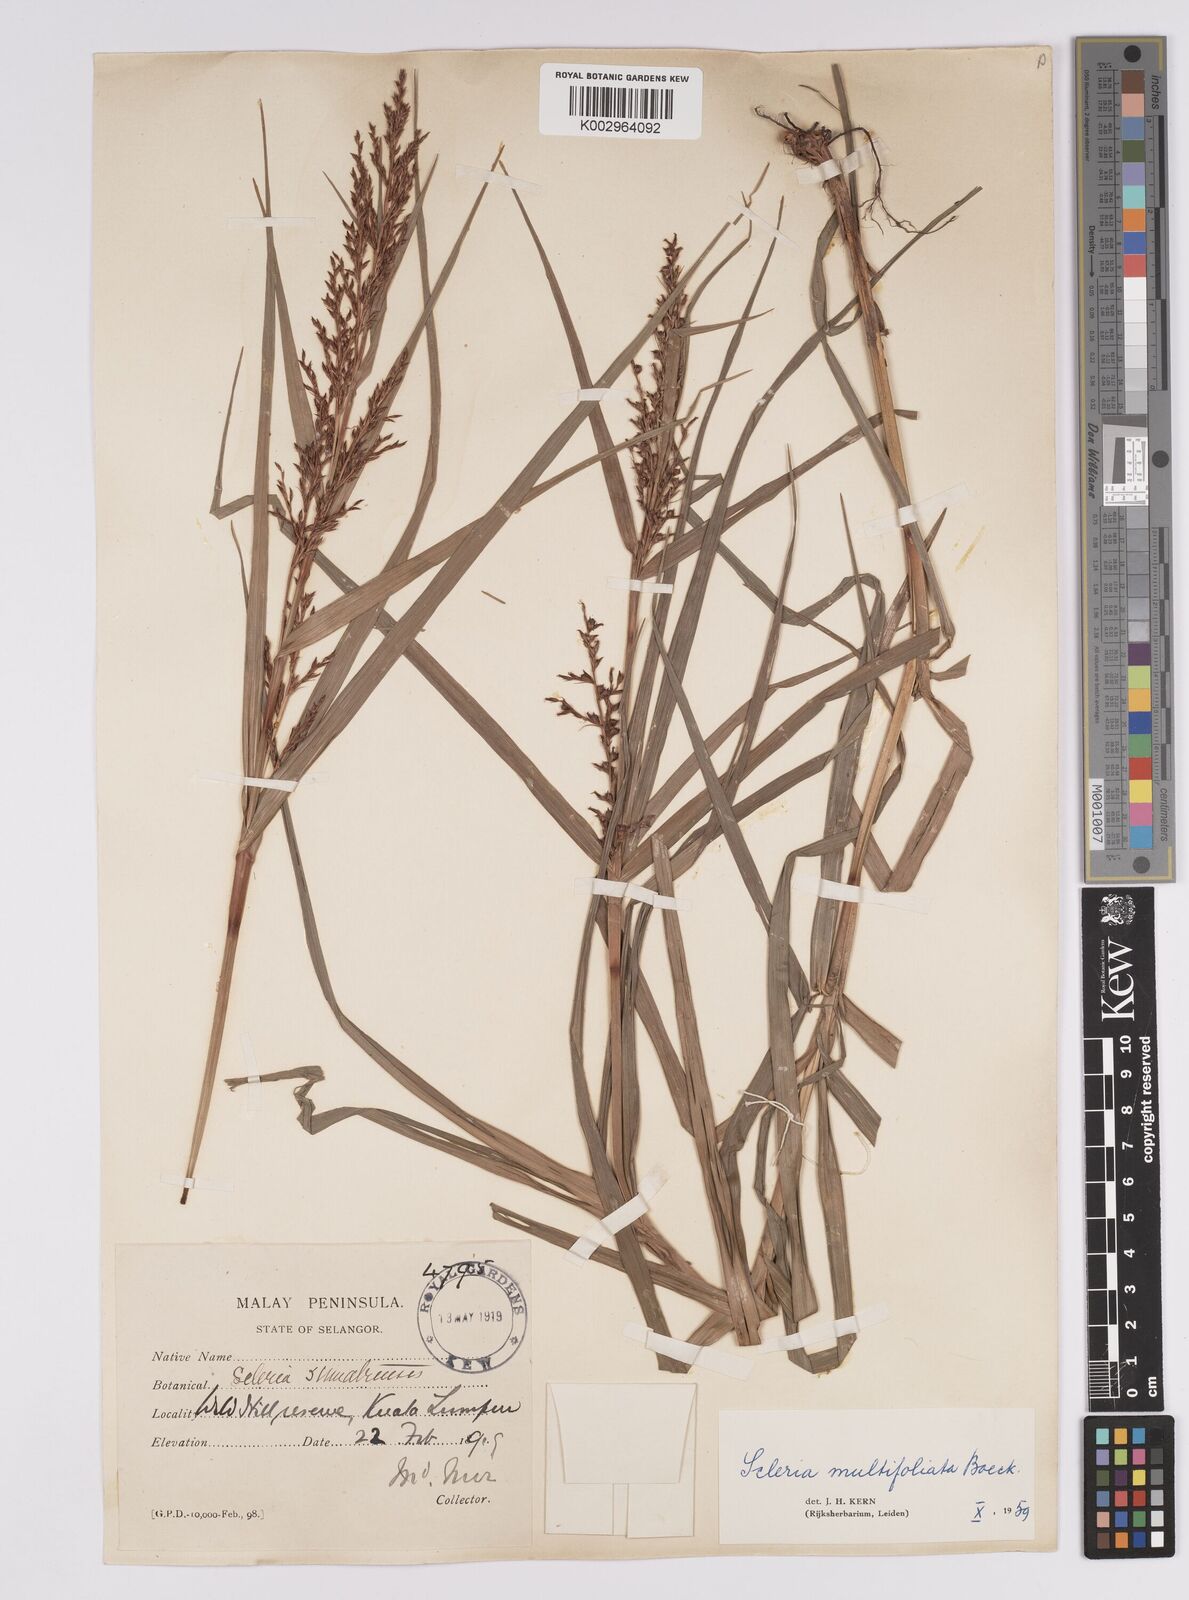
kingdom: Plantae
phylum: Tracheophyta
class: Liliopsida
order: Poales
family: Cyperaceae
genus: Scleria
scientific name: Scleria purpurascens
